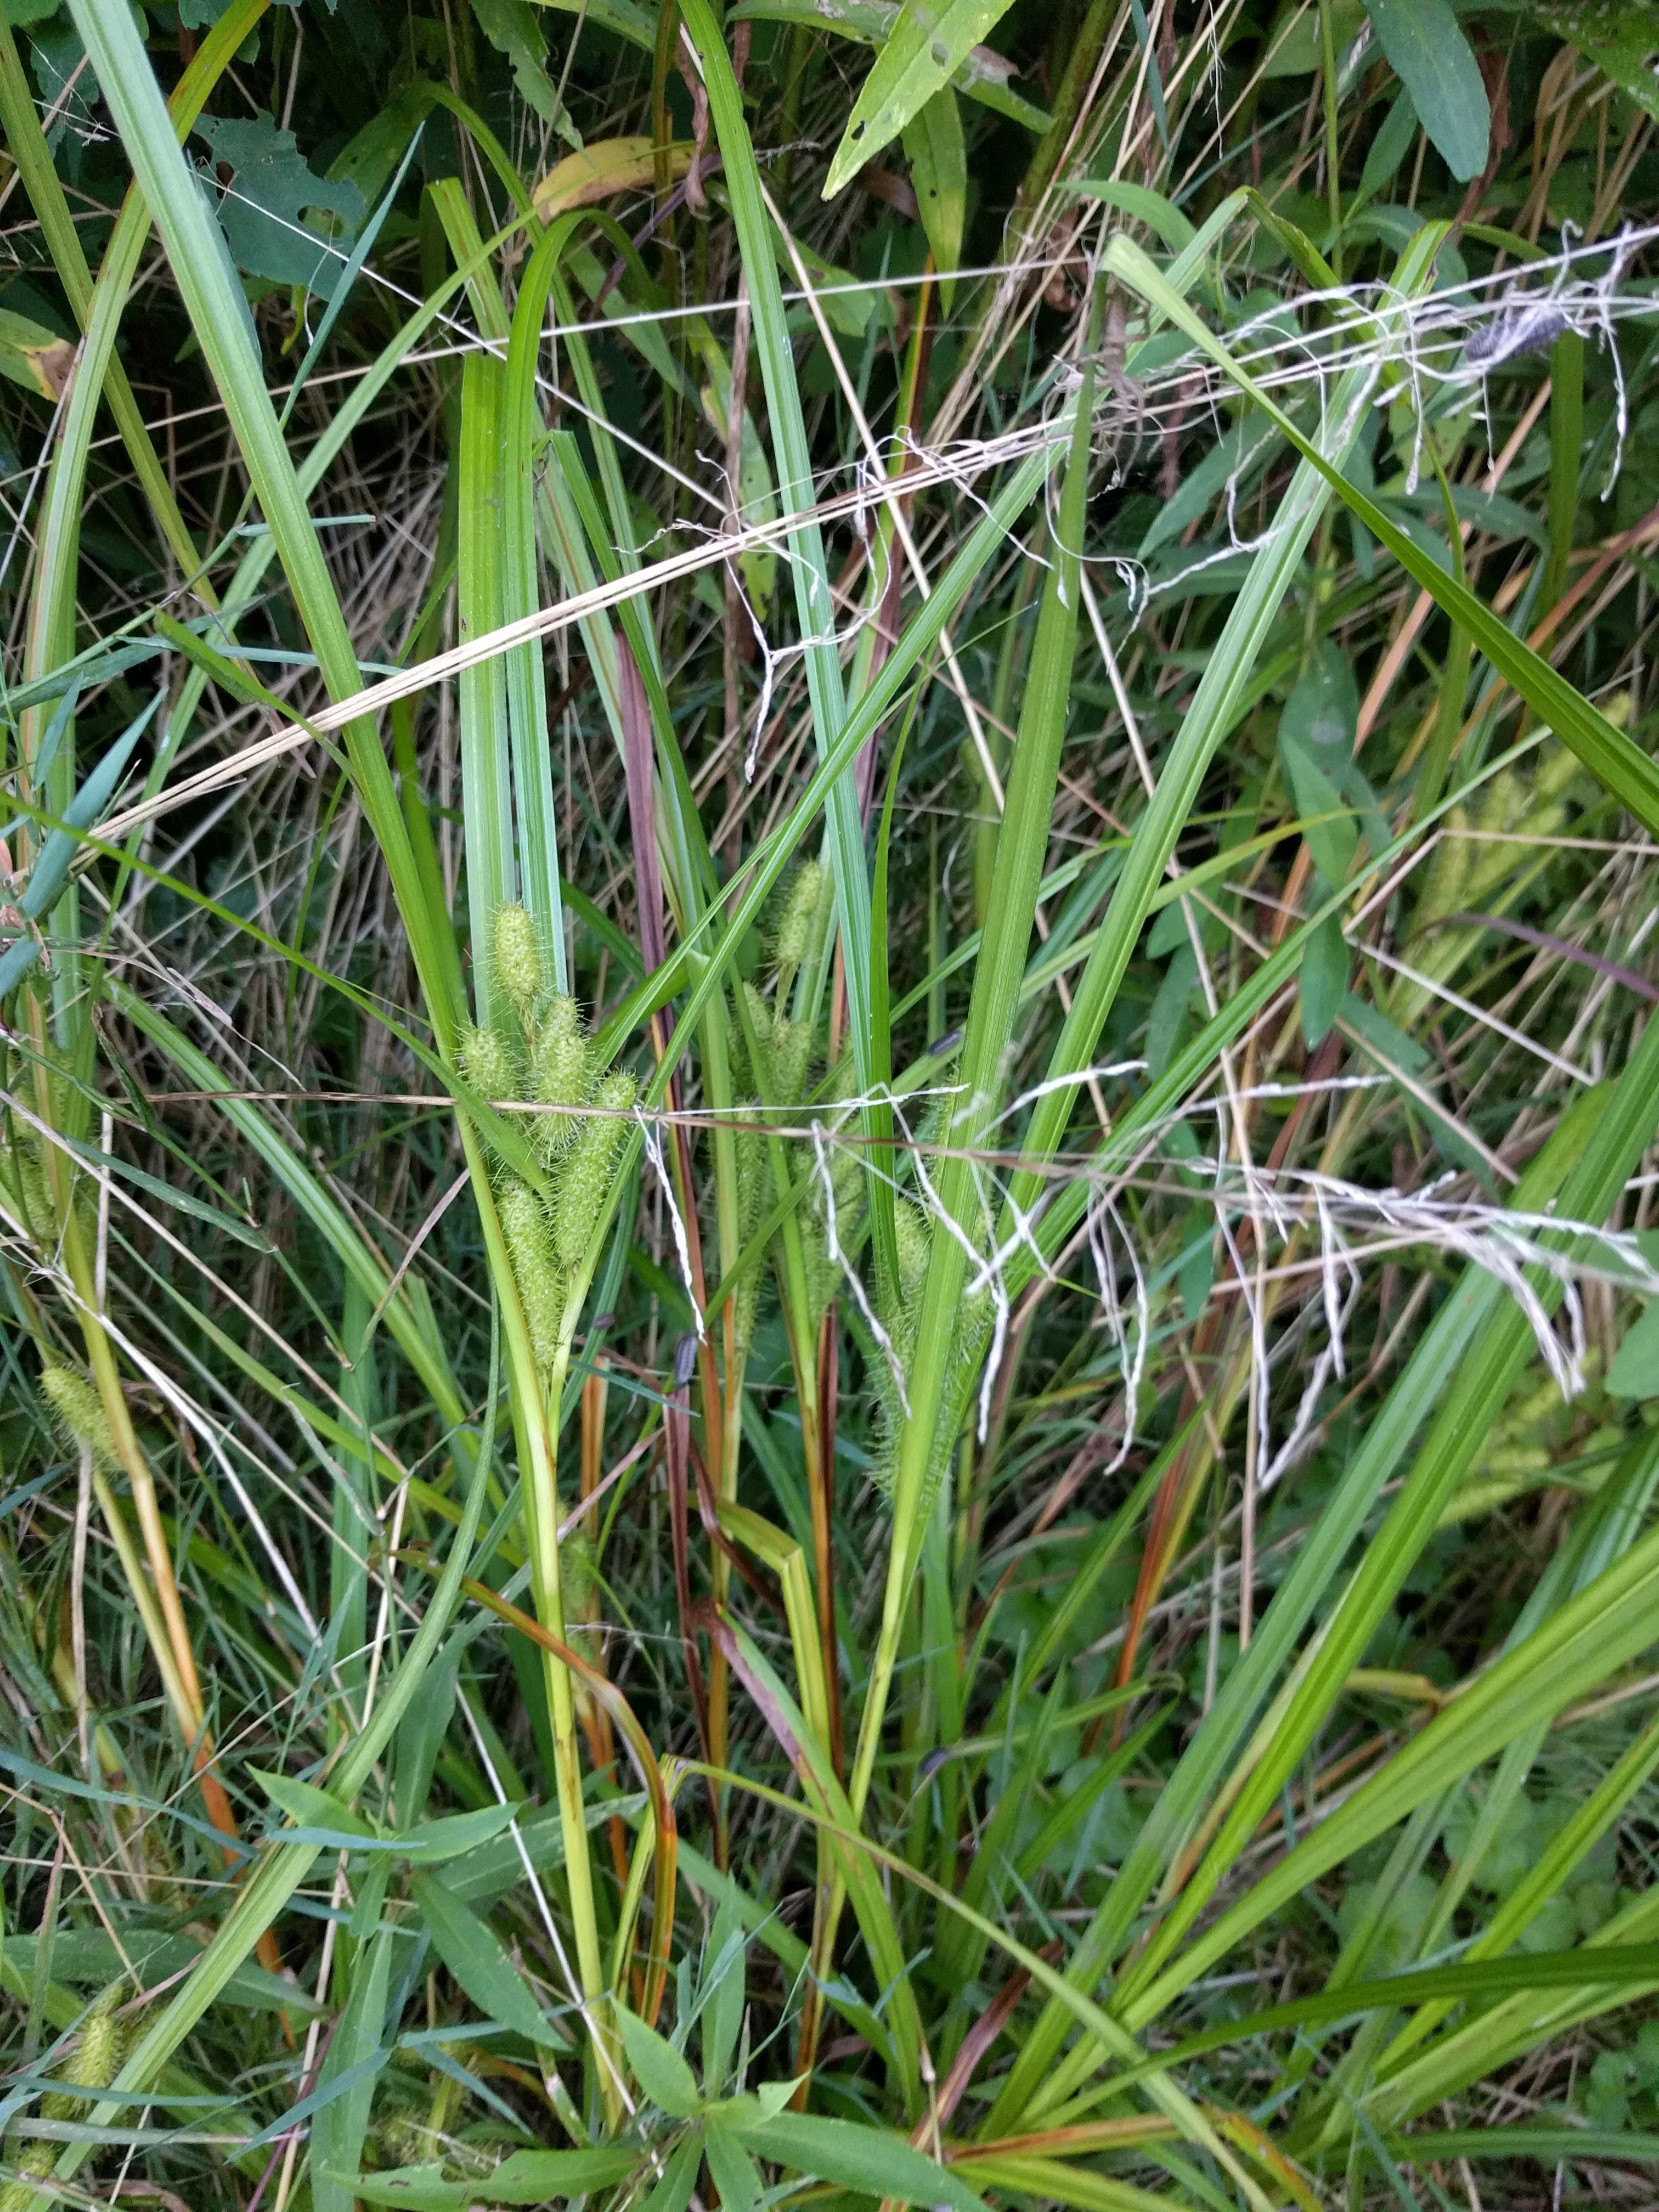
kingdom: Plantae
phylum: Tracheophyta
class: Liliopsida
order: Poales
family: Cyperaceae
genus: Carex
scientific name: Carex frankii
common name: Frank's sedge
